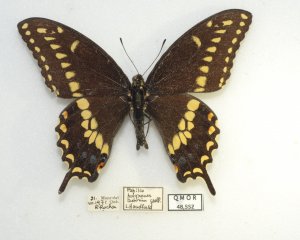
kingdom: Animalia
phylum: Arthropoda
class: Insecta
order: Lepidoptera
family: Papilionidae
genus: Papilio
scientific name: Papilio polyxenes
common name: Black Swallowtail
